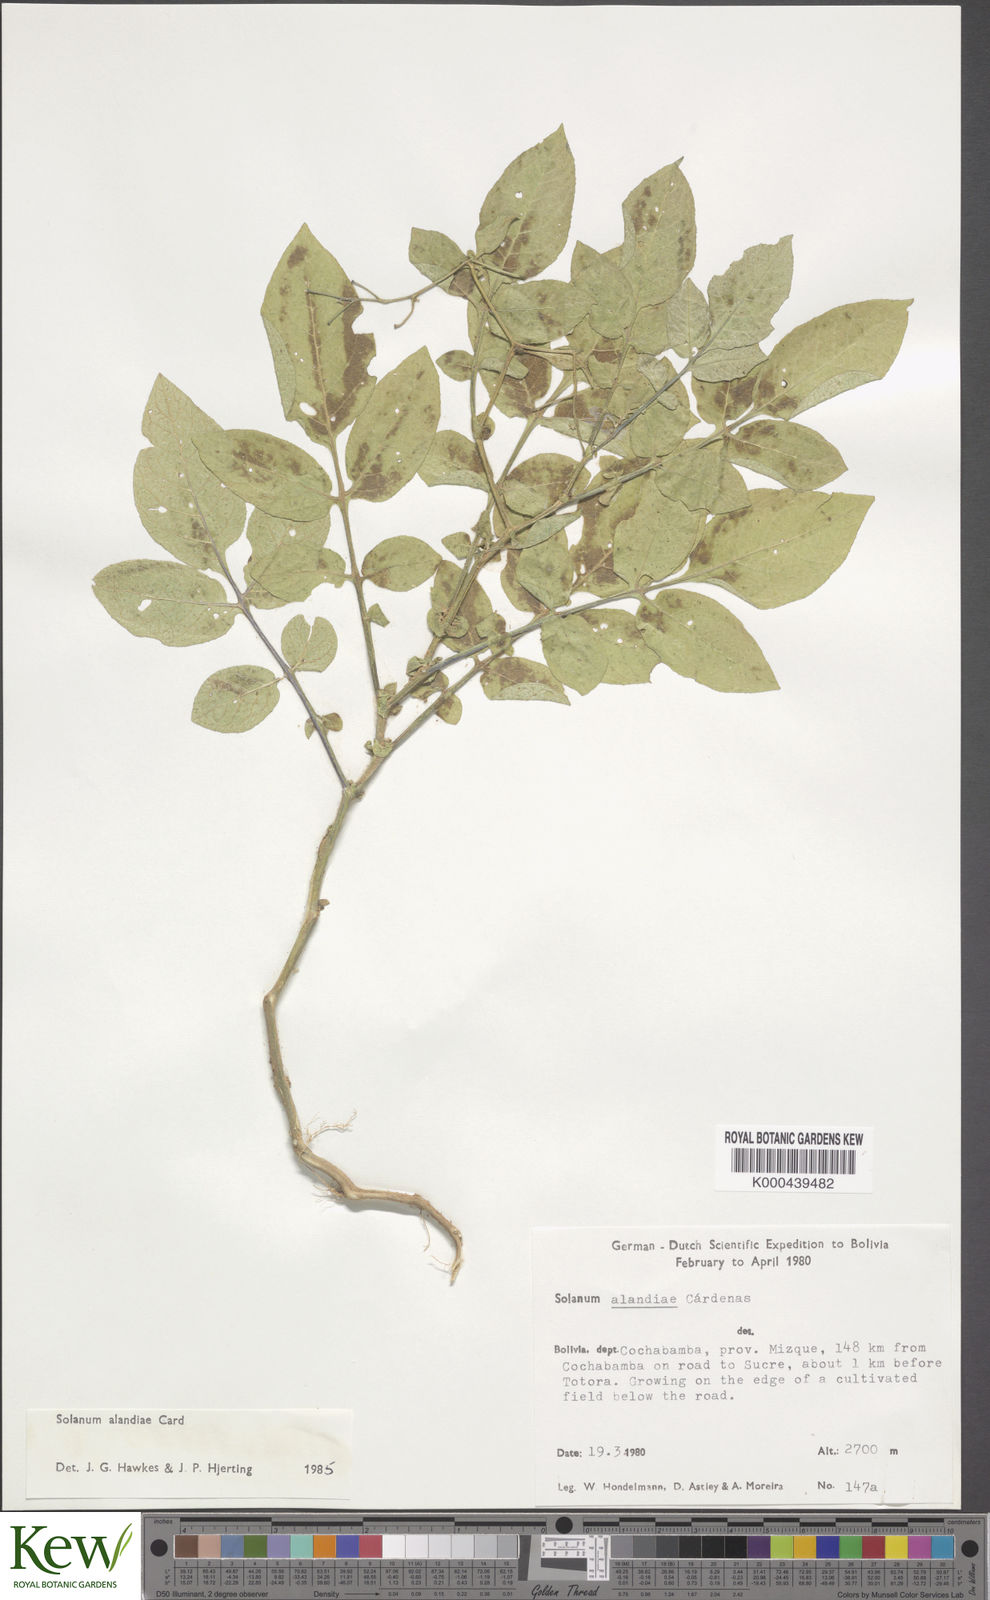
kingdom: Plantae
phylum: Tracheophyta
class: Magnoliopsida
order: Solanales
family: Solanaceae
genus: Solanum
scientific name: Solanum brevicaule
